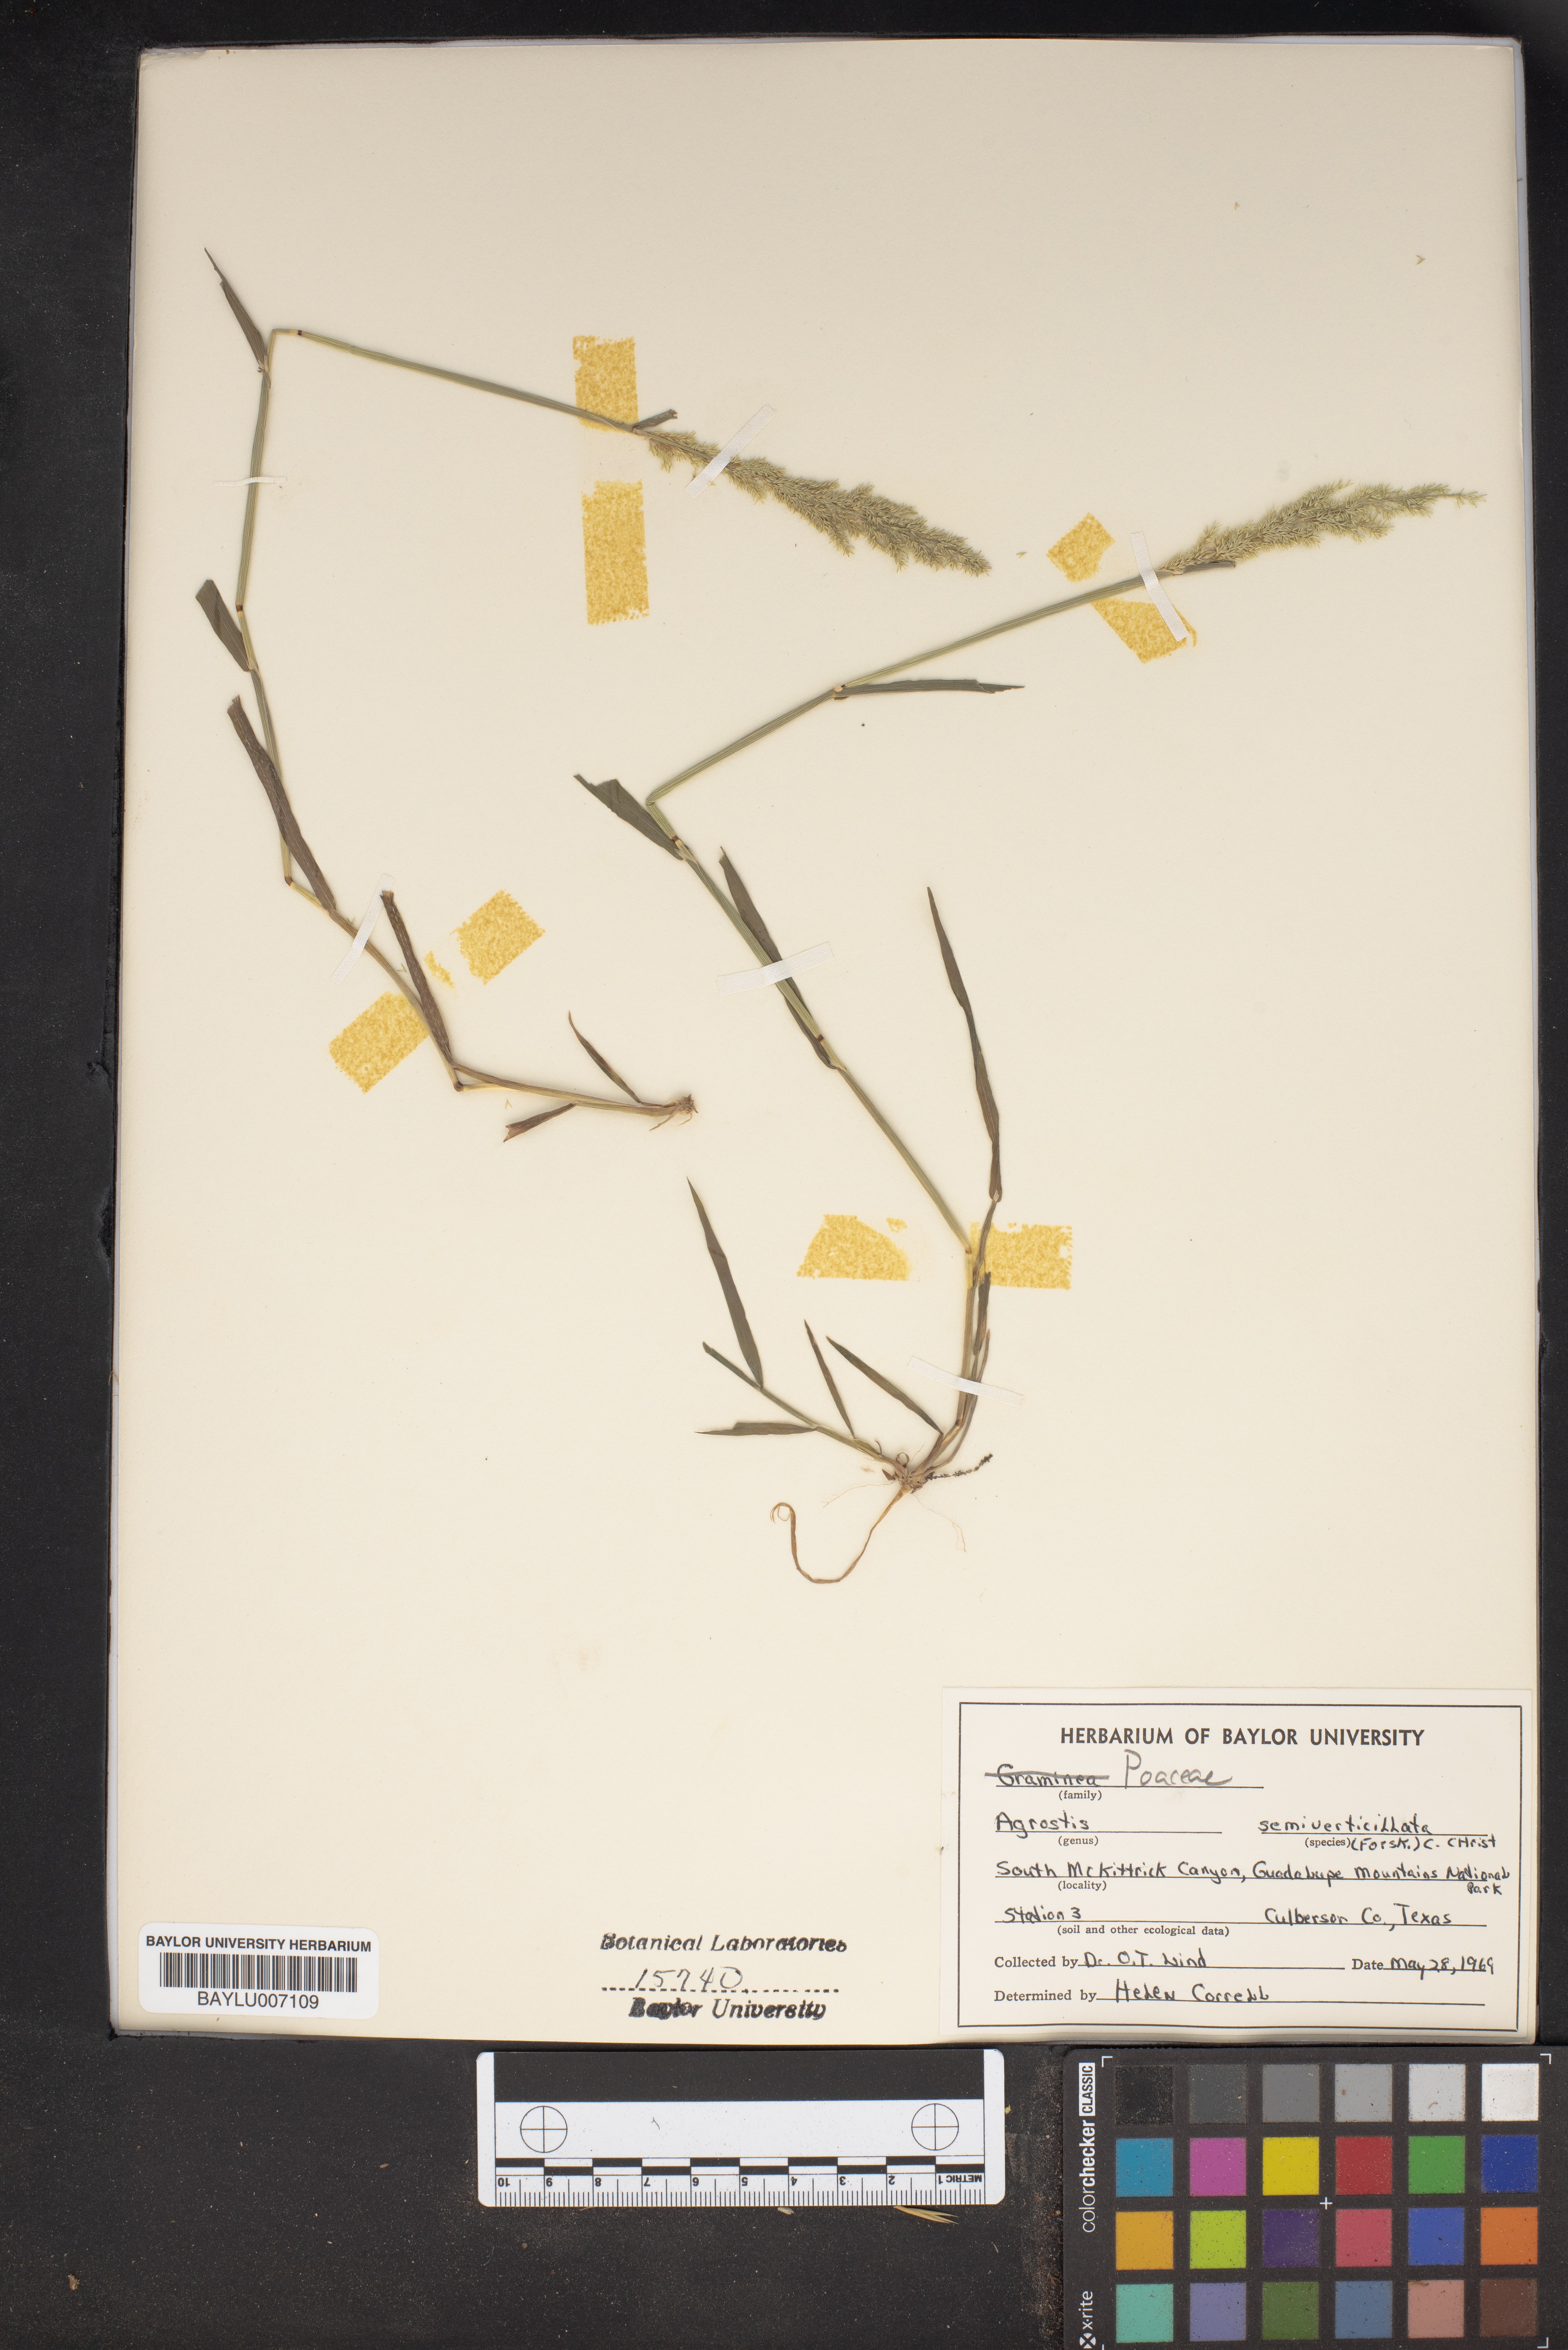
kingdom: Plantae
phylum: Tracheophyta
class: Liliopsida
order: Poales
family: Poaceae
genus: Polypogon
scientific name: Polypogon viridis
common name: Water bent
